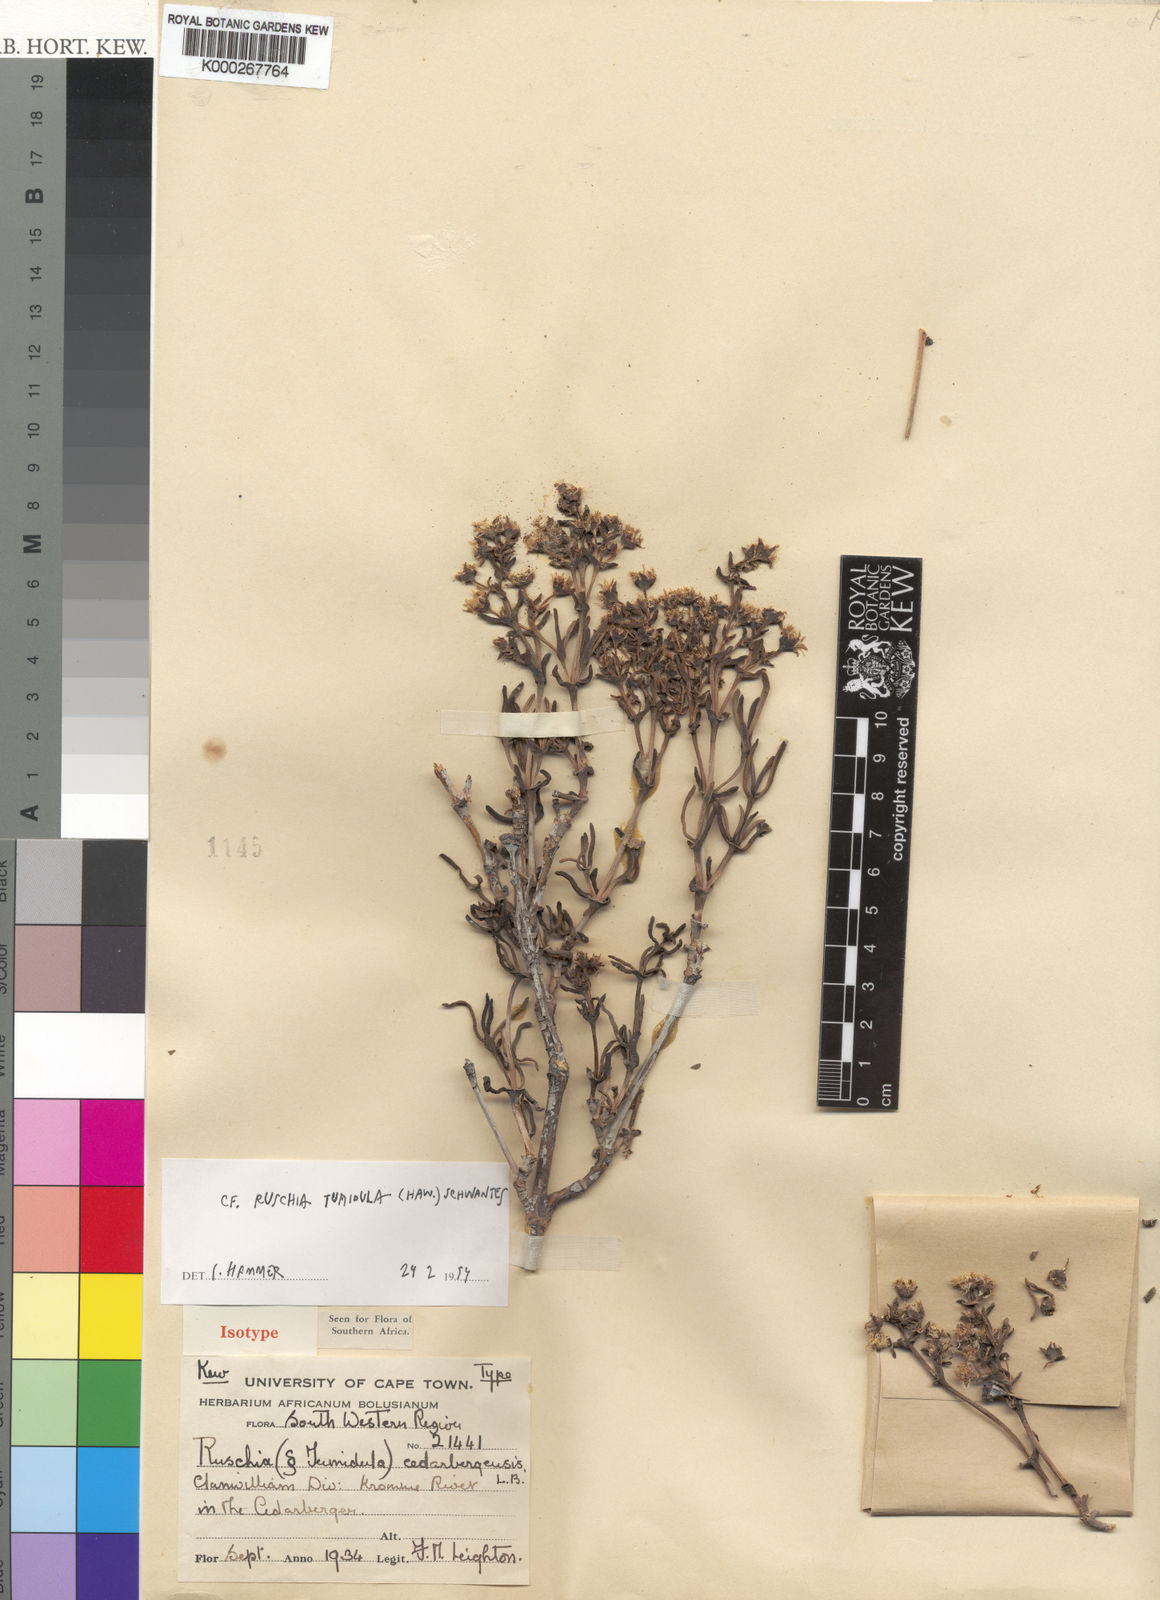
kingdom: Plantae
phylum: Tracheophyta
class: Magnoliopsida
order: Caryophyllales
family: Aizoaceae
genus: Ruschia
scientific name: Ruschia
